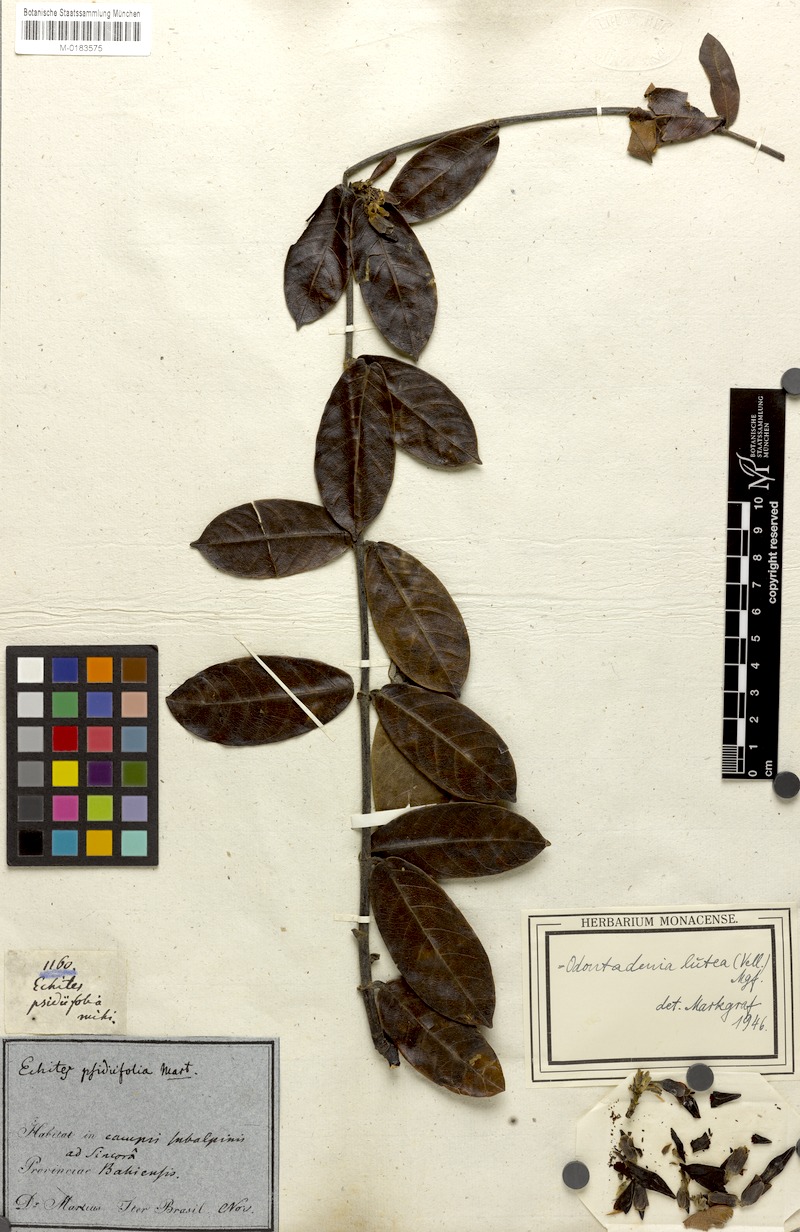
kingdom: Plantae
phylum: Tracheophyta
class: Magnoliopsida
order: Gentianales
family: Apocynaceae
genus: Odontadenia
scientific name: Odontadenia lutea
